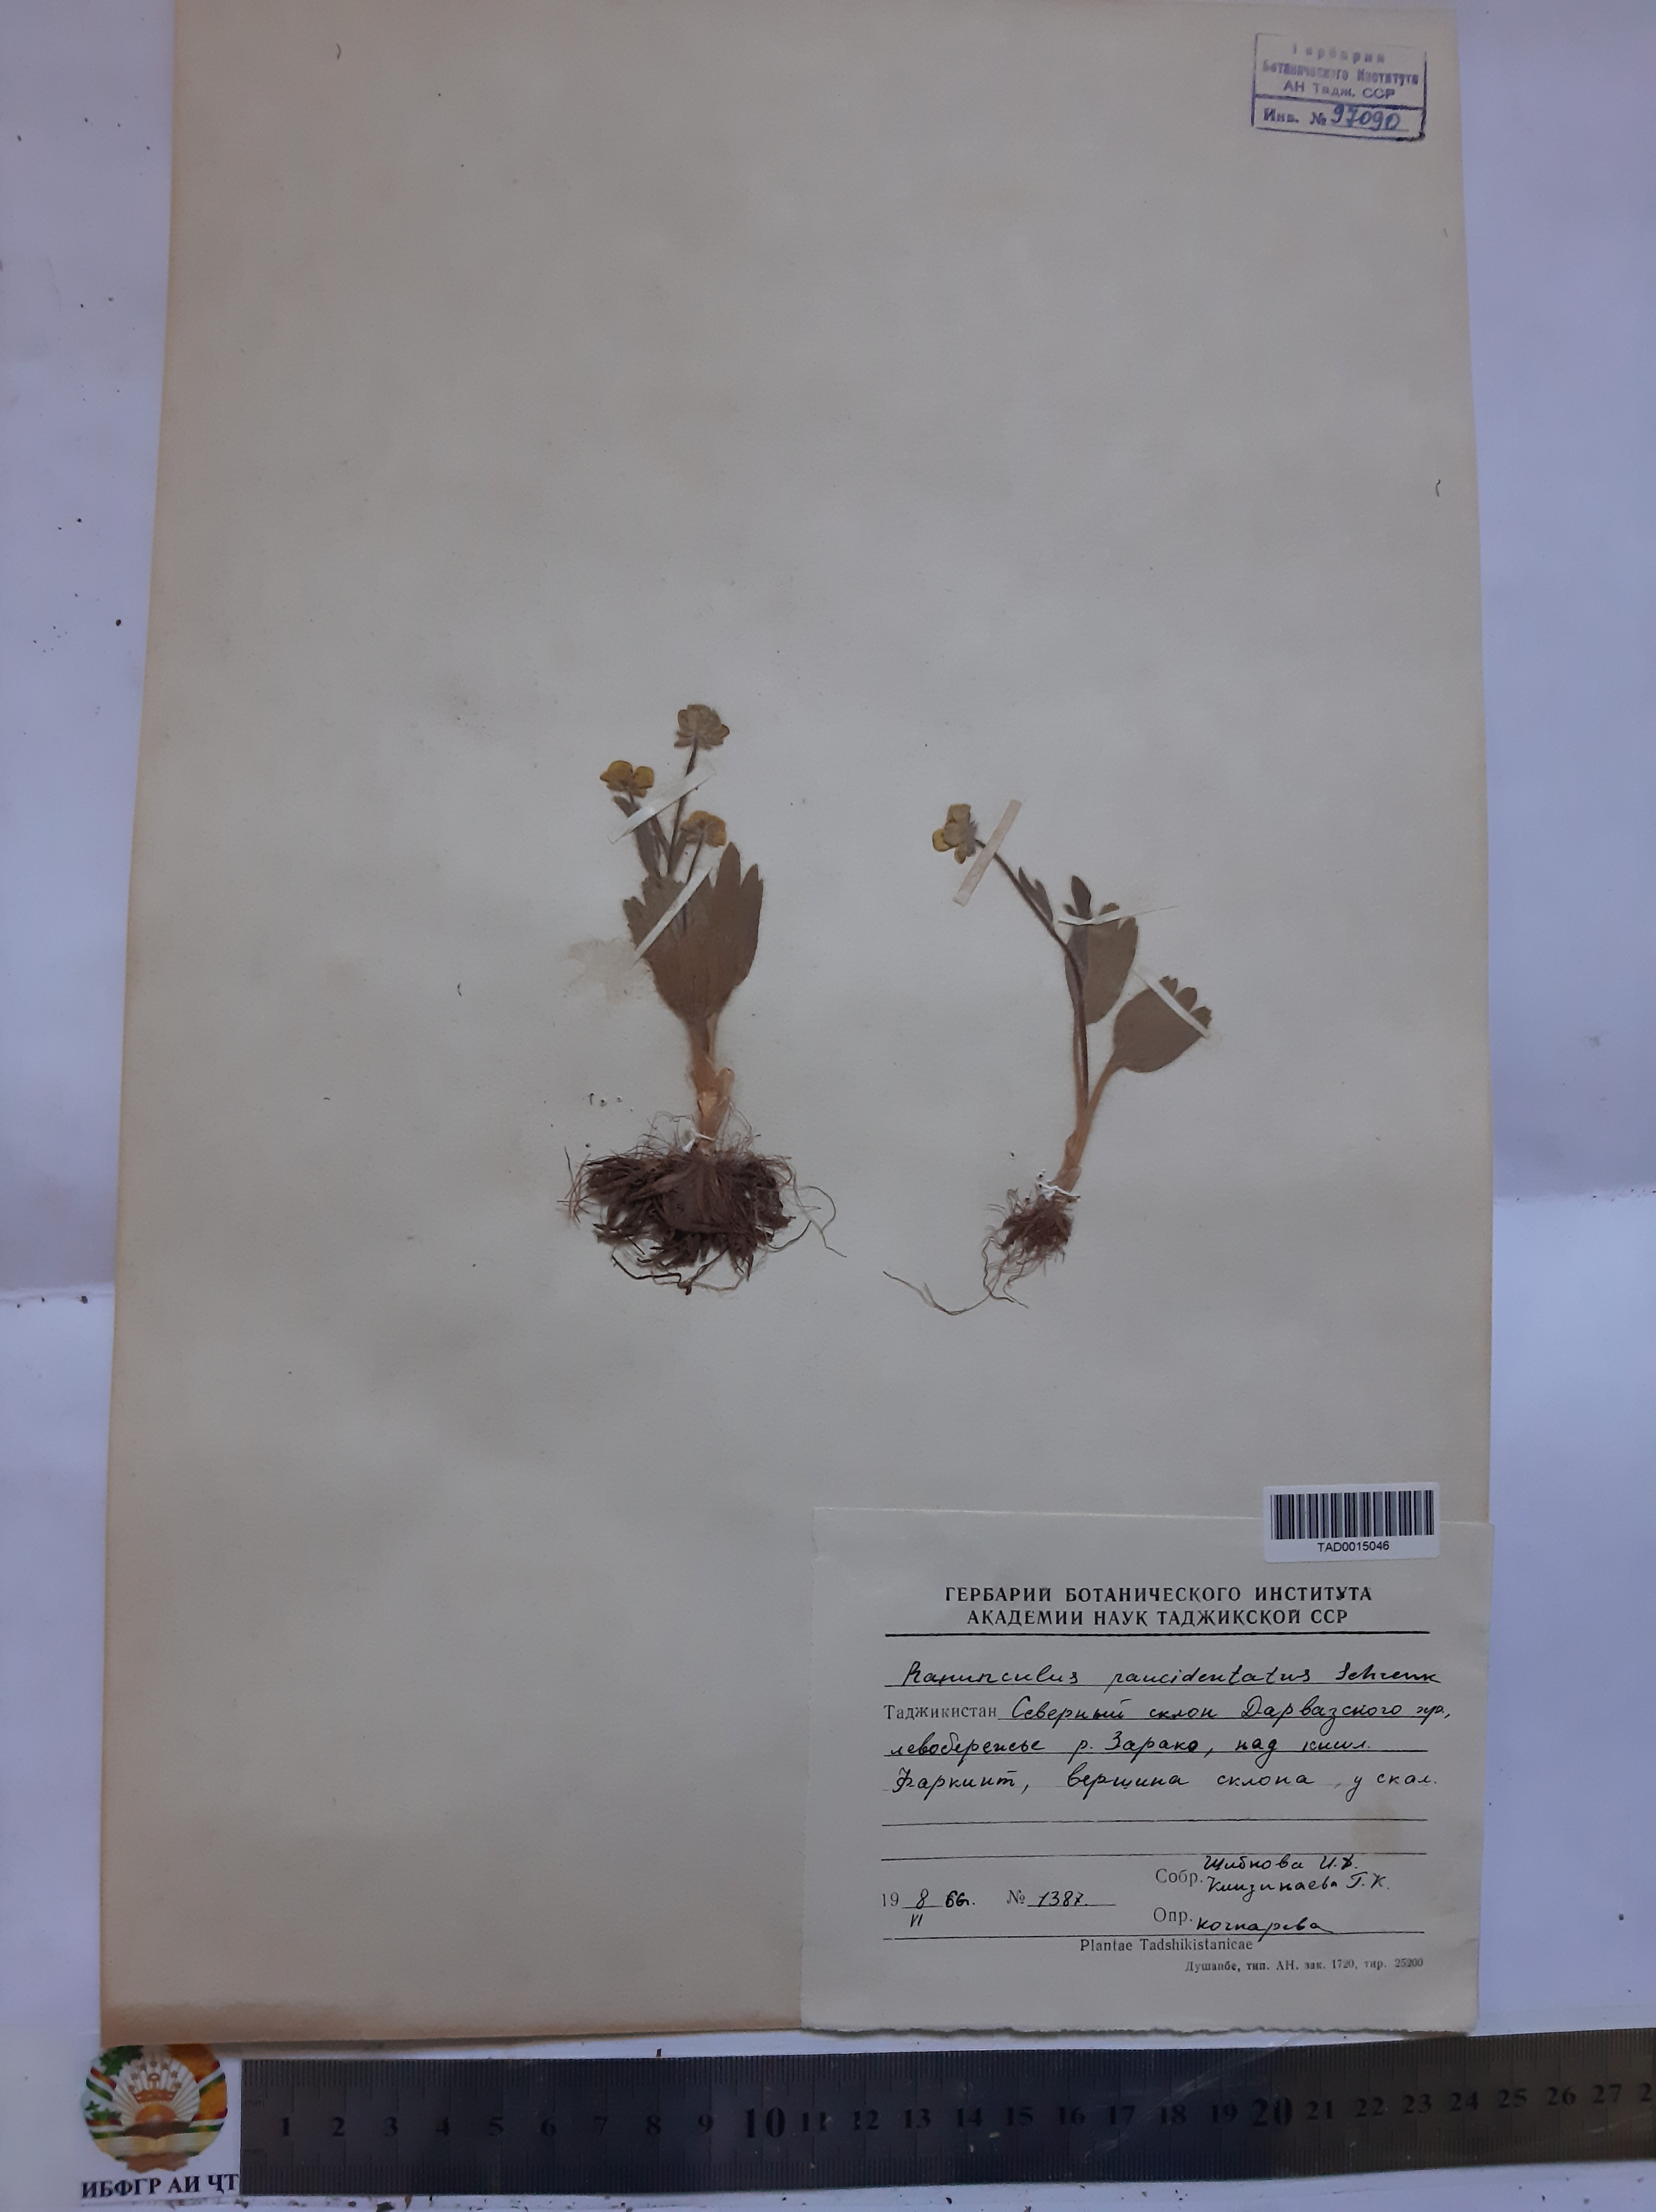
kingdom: Plantae
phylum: Tracheophyta
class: Magnoliopsida
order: Ranunculales
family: Ranunculaceae
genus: Ranunculus
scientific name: Ranunculus paucidentatus
